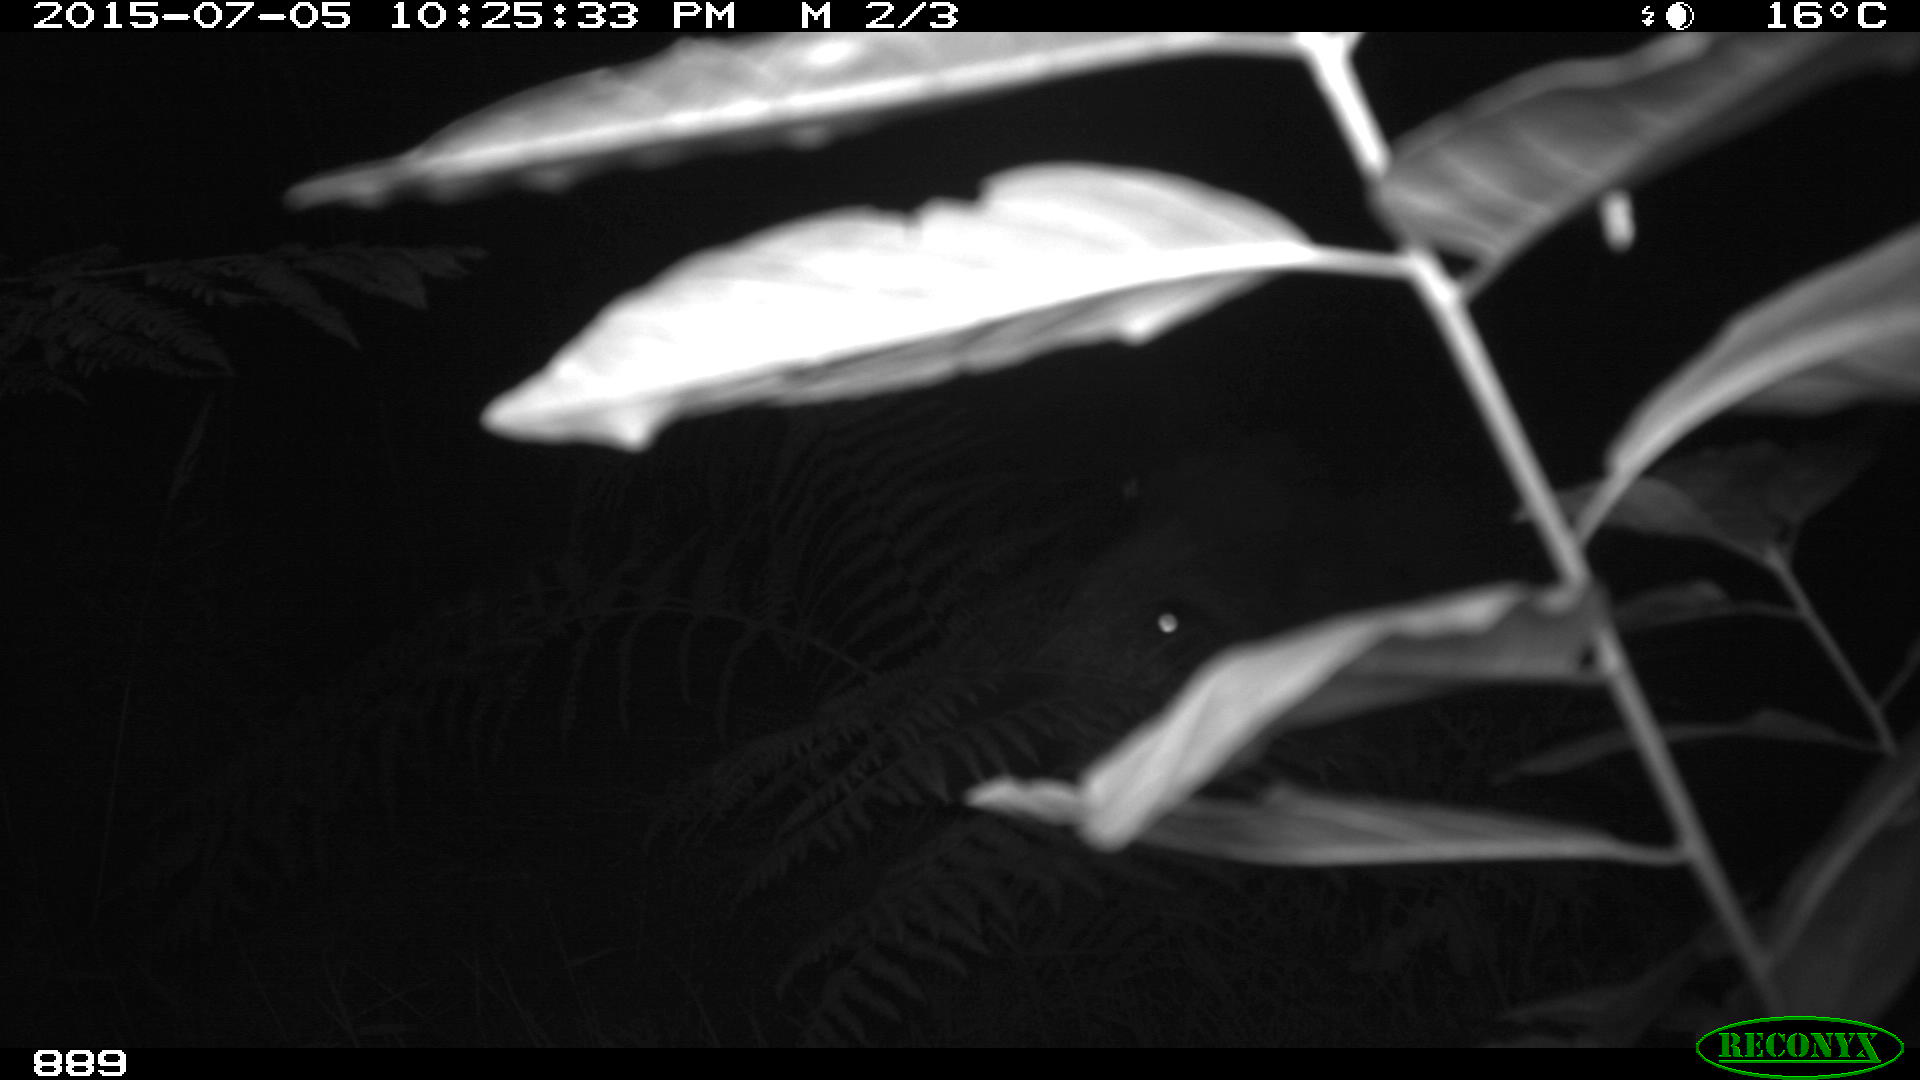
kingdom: Animalia
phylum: Chordata
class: Mammalia
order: Artiodactyla
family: Suidae
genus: Sus
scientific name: Sus scrofa
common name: Wild boar
